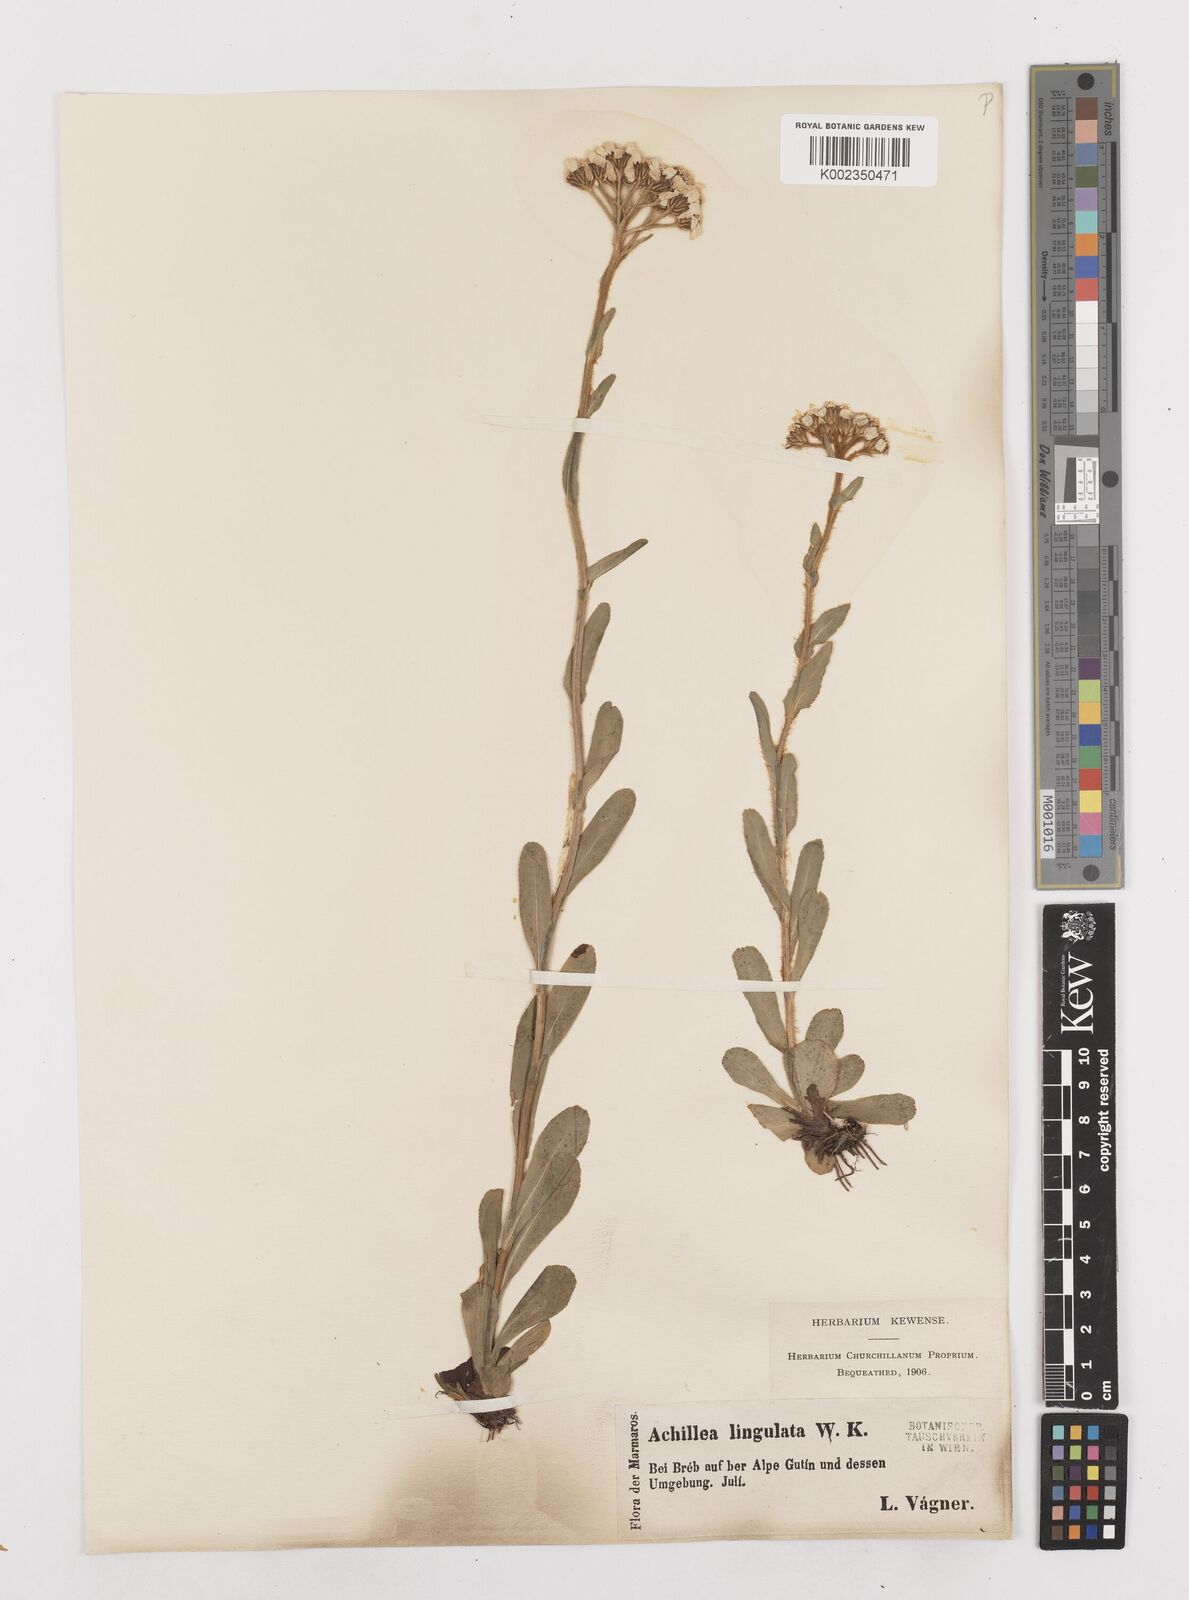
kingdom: Plantae
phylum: Tracheophyta
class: Magnoliopsida
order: Asterales
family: Asteraceae
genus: Achillea
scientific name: Achillea lingulata
